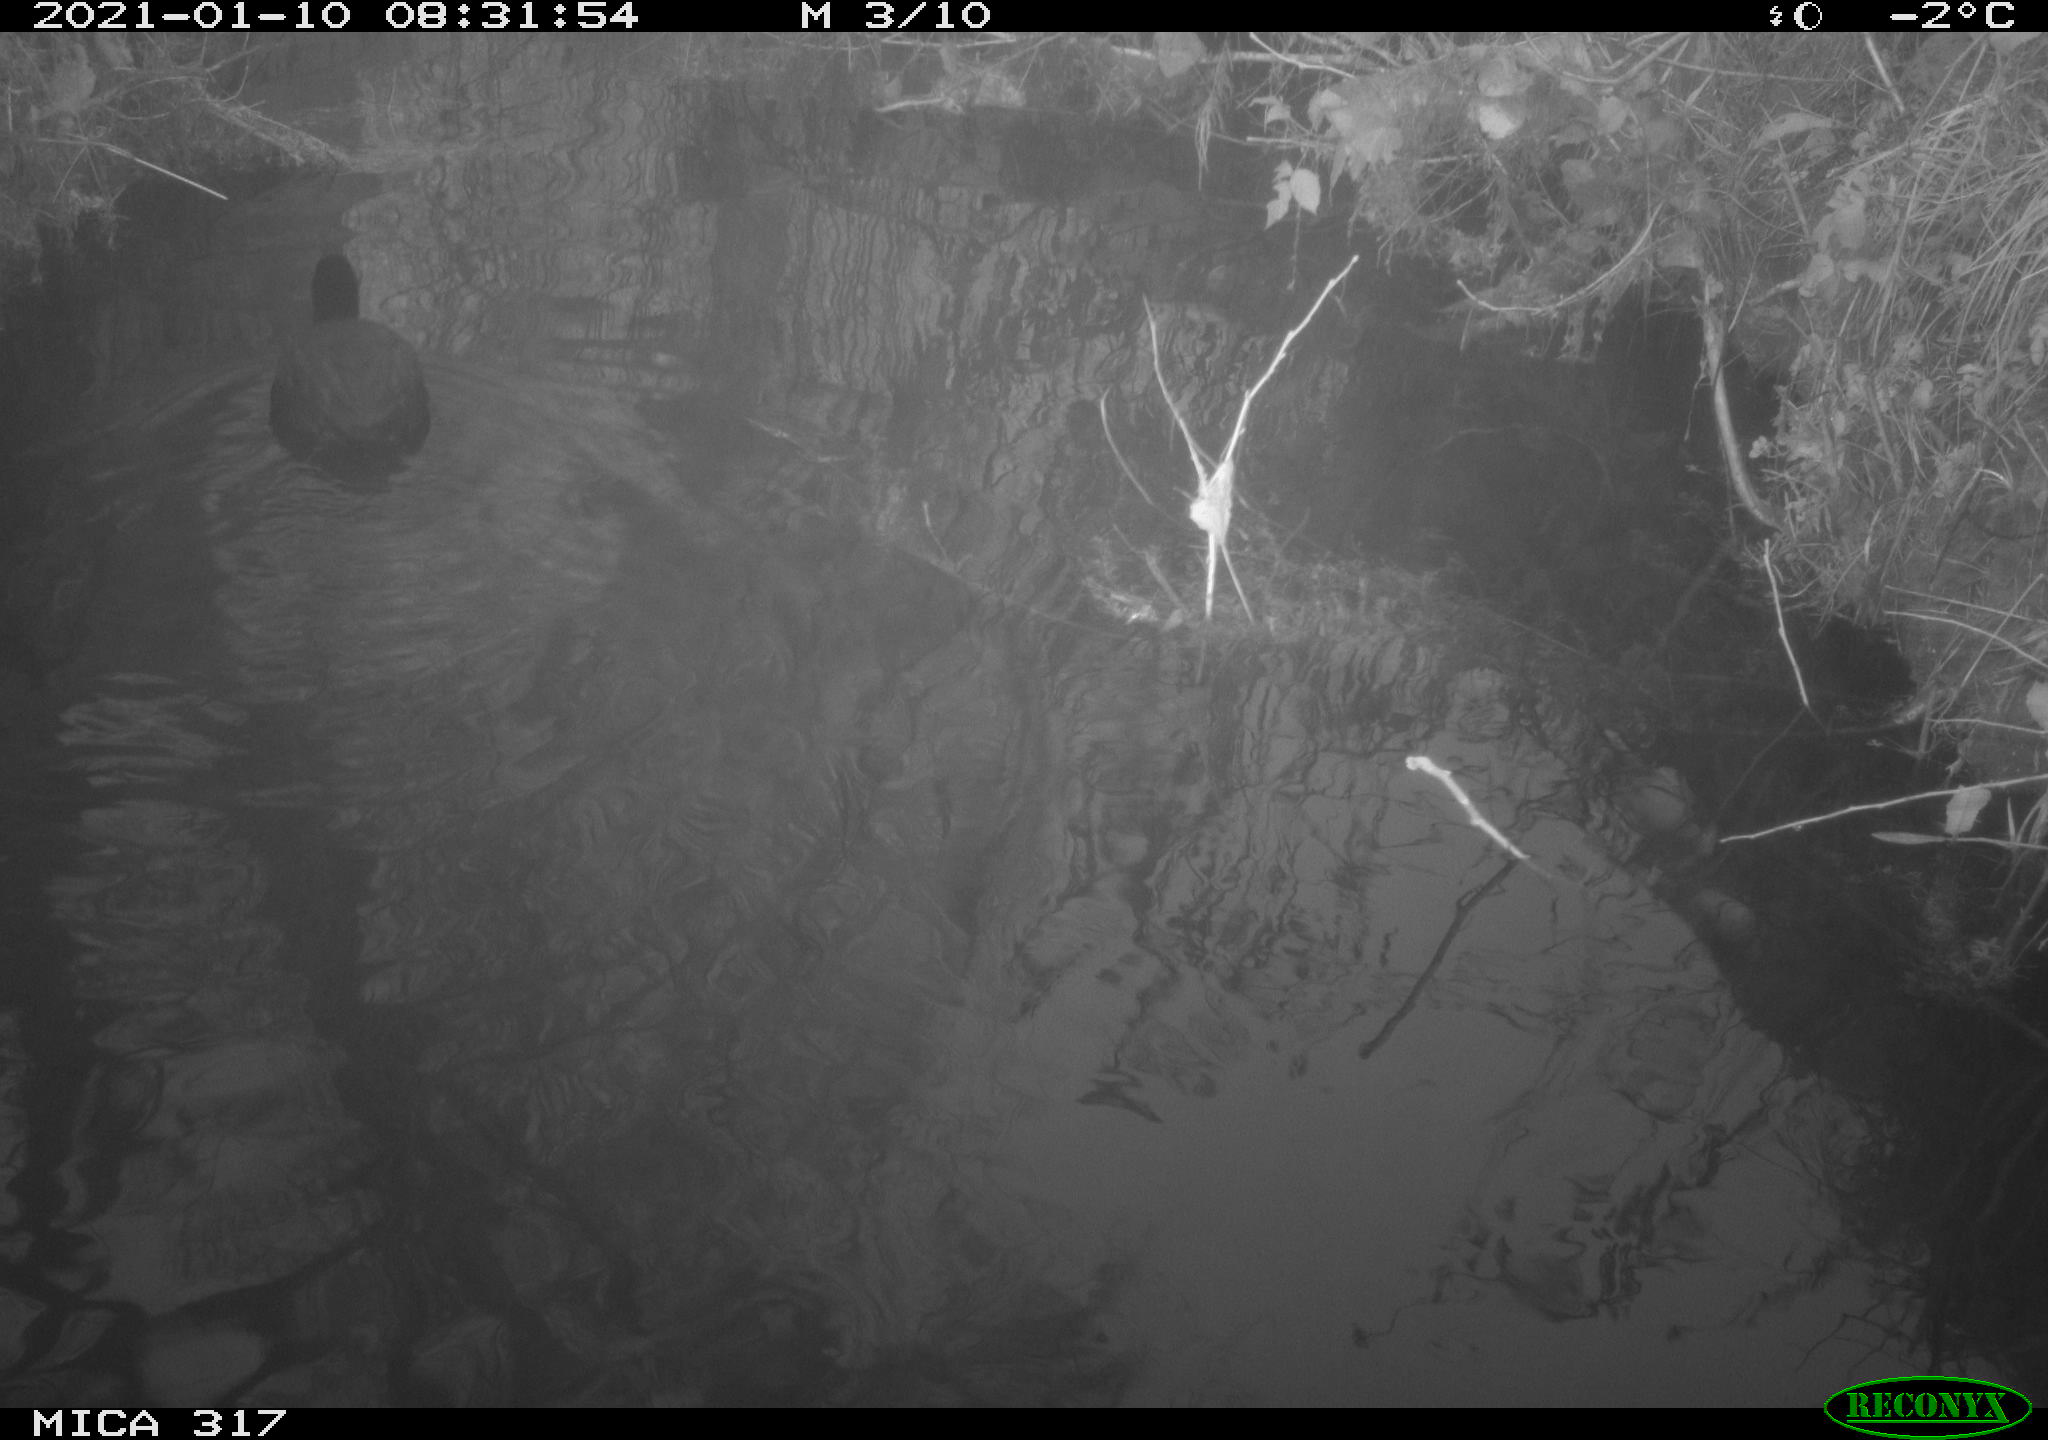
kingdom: Animalia
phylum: Chordata
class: Aves
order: Gruiformes
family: Rallidae
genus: Fulica
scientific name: Fulica atra
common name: Eurasian coot
